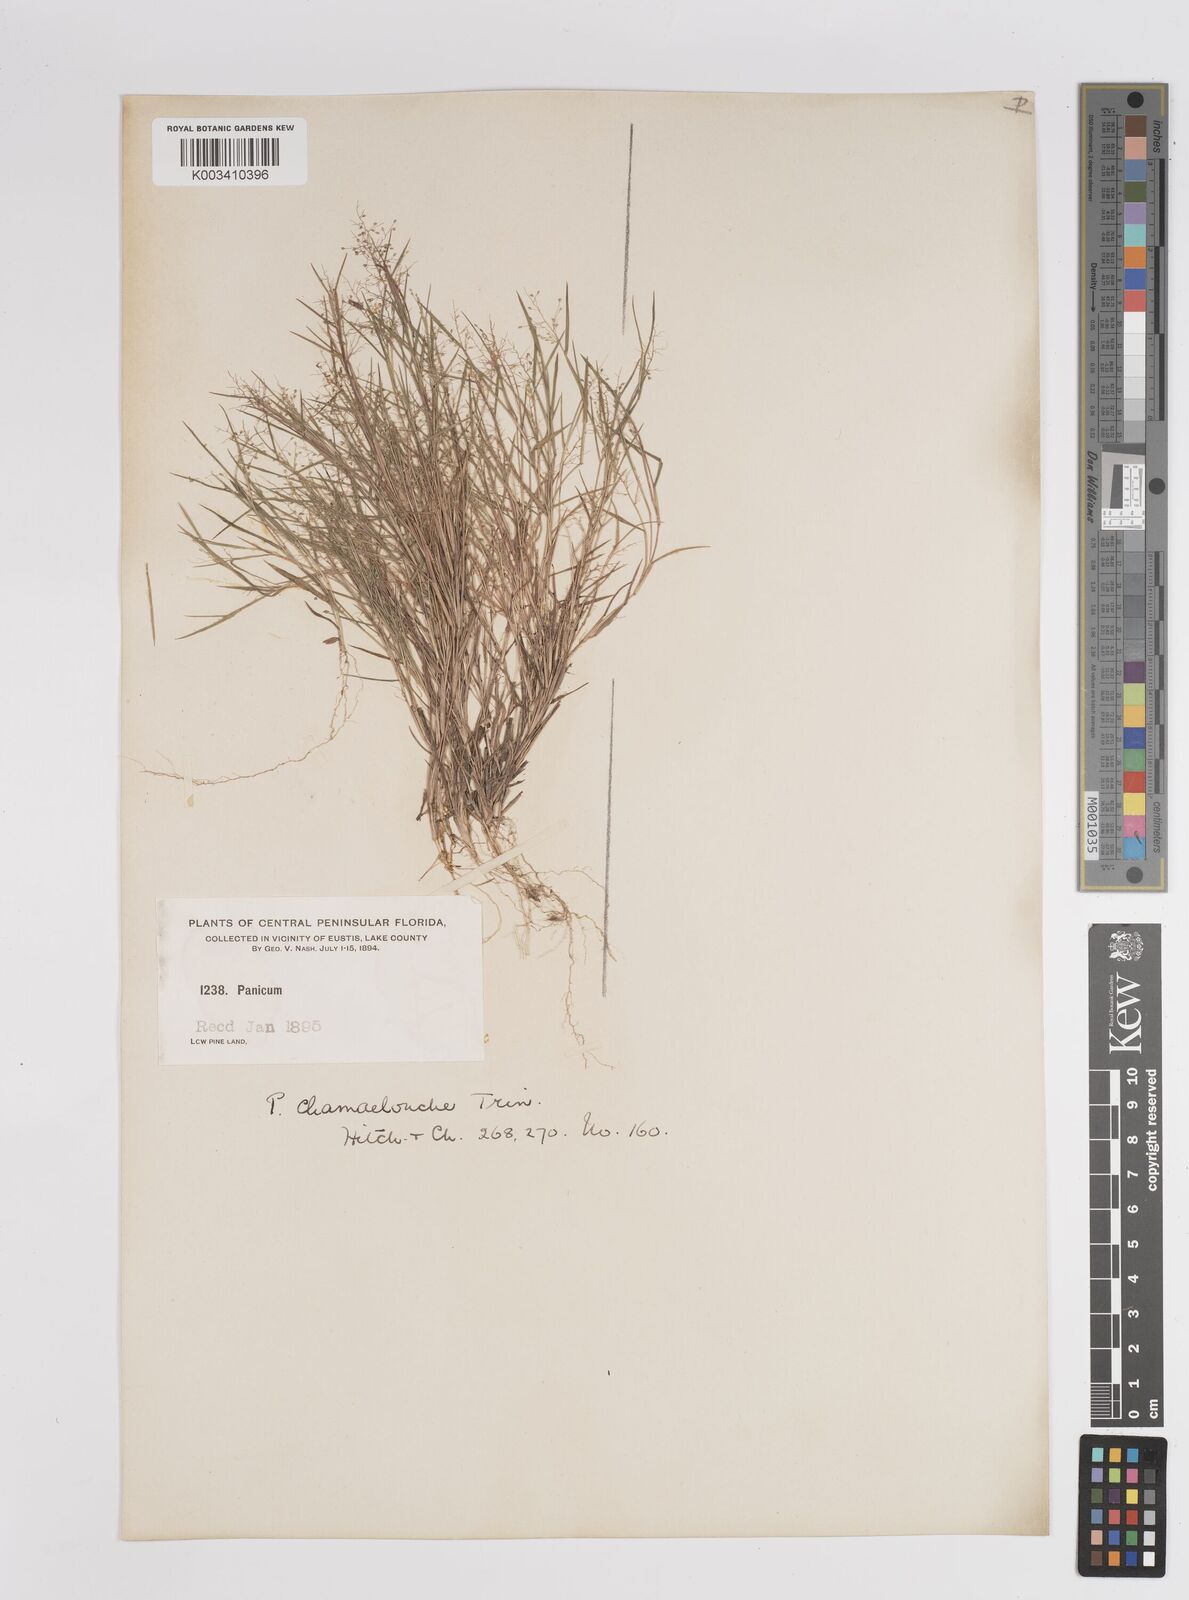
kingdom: Plantae
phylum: Tracheophyta
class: Liliopsida
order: Poales
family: Poaceae
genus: Dichanthelium
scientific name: Dichanthelium chamaelonche
